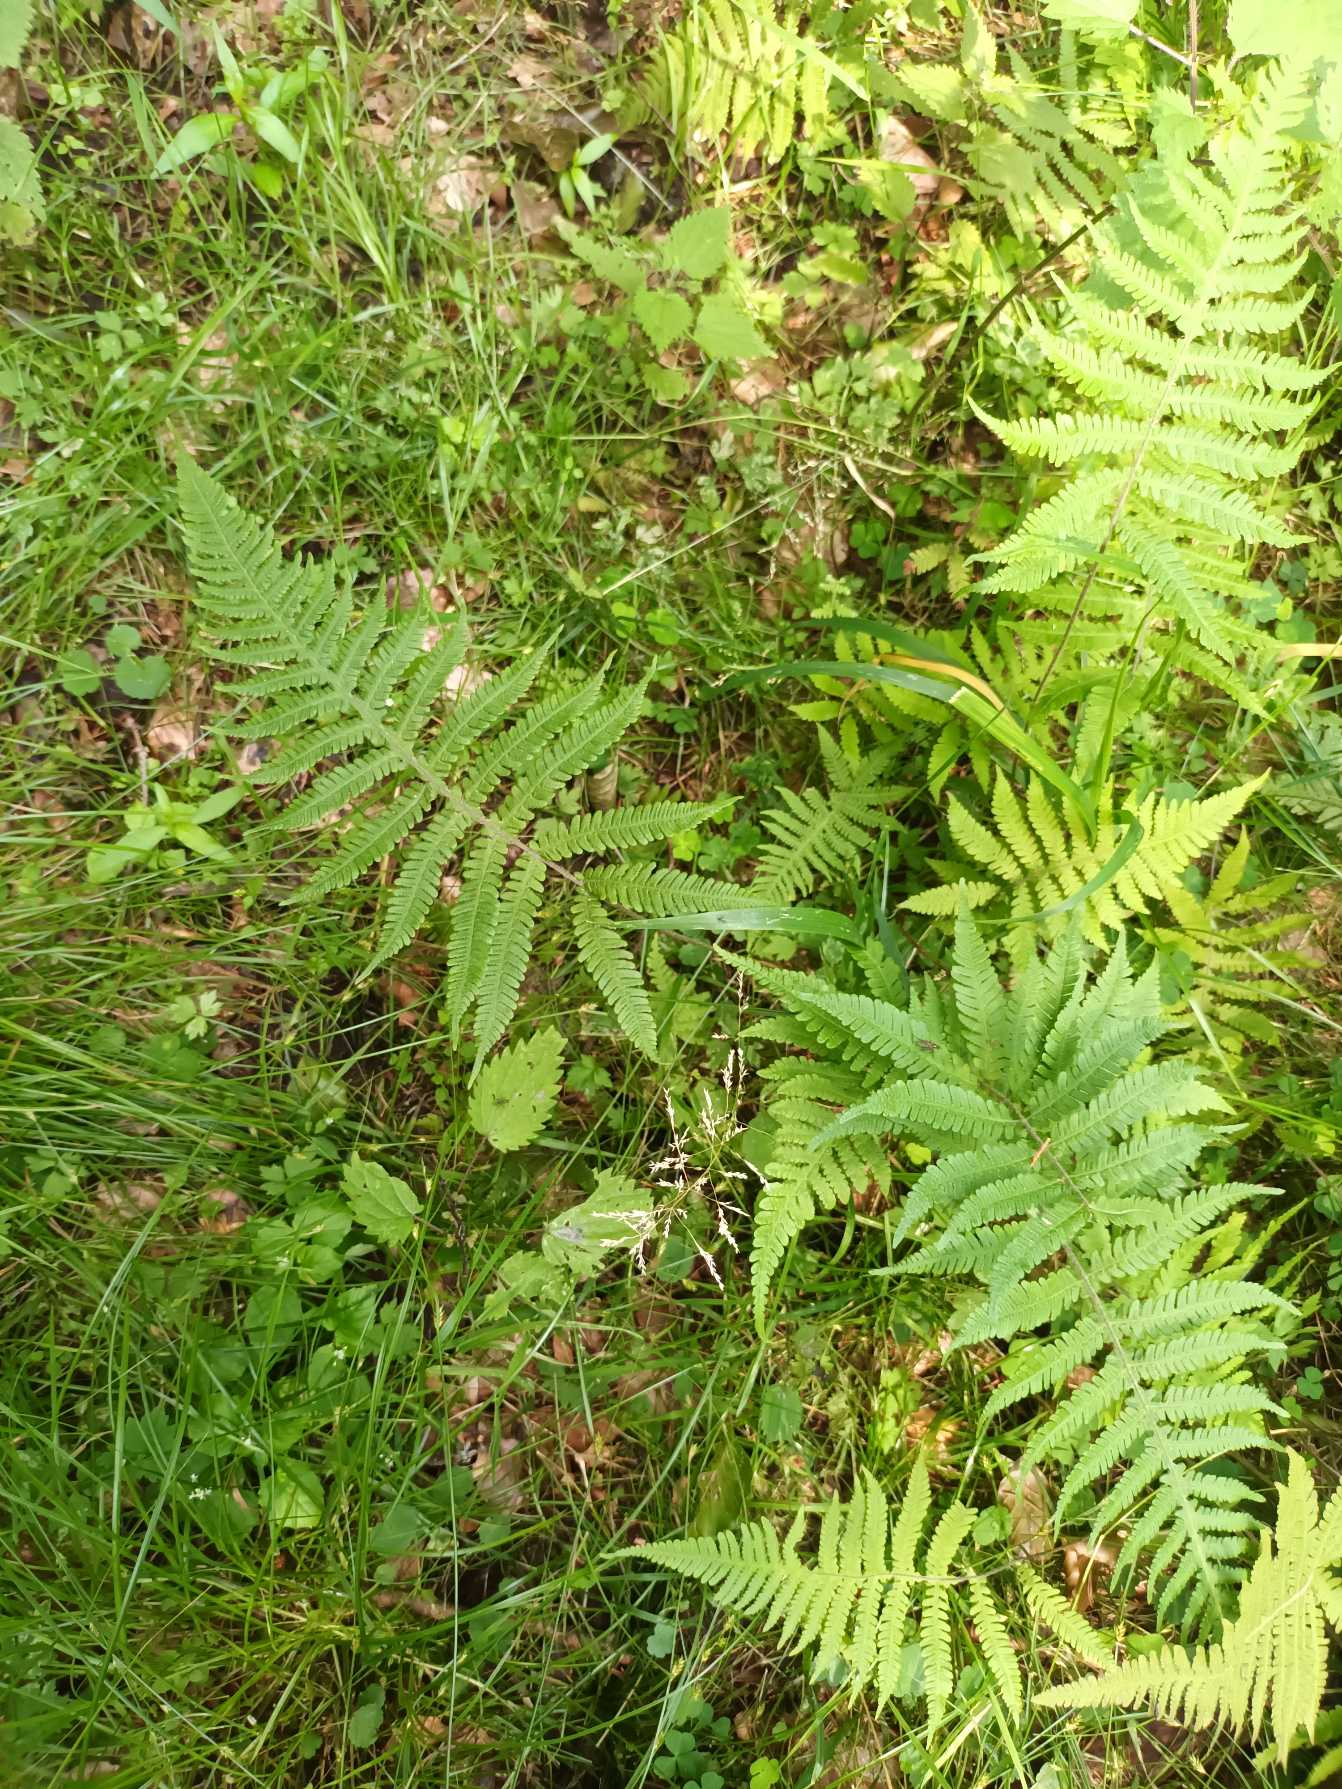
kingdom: Plantae
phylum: Tracheophyta
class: Polypodiopsida
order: Polypodiales
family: Thelypteridaceae
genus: Phegopteris
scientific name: Phegopteris connectilis
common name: Dunet egebregne
